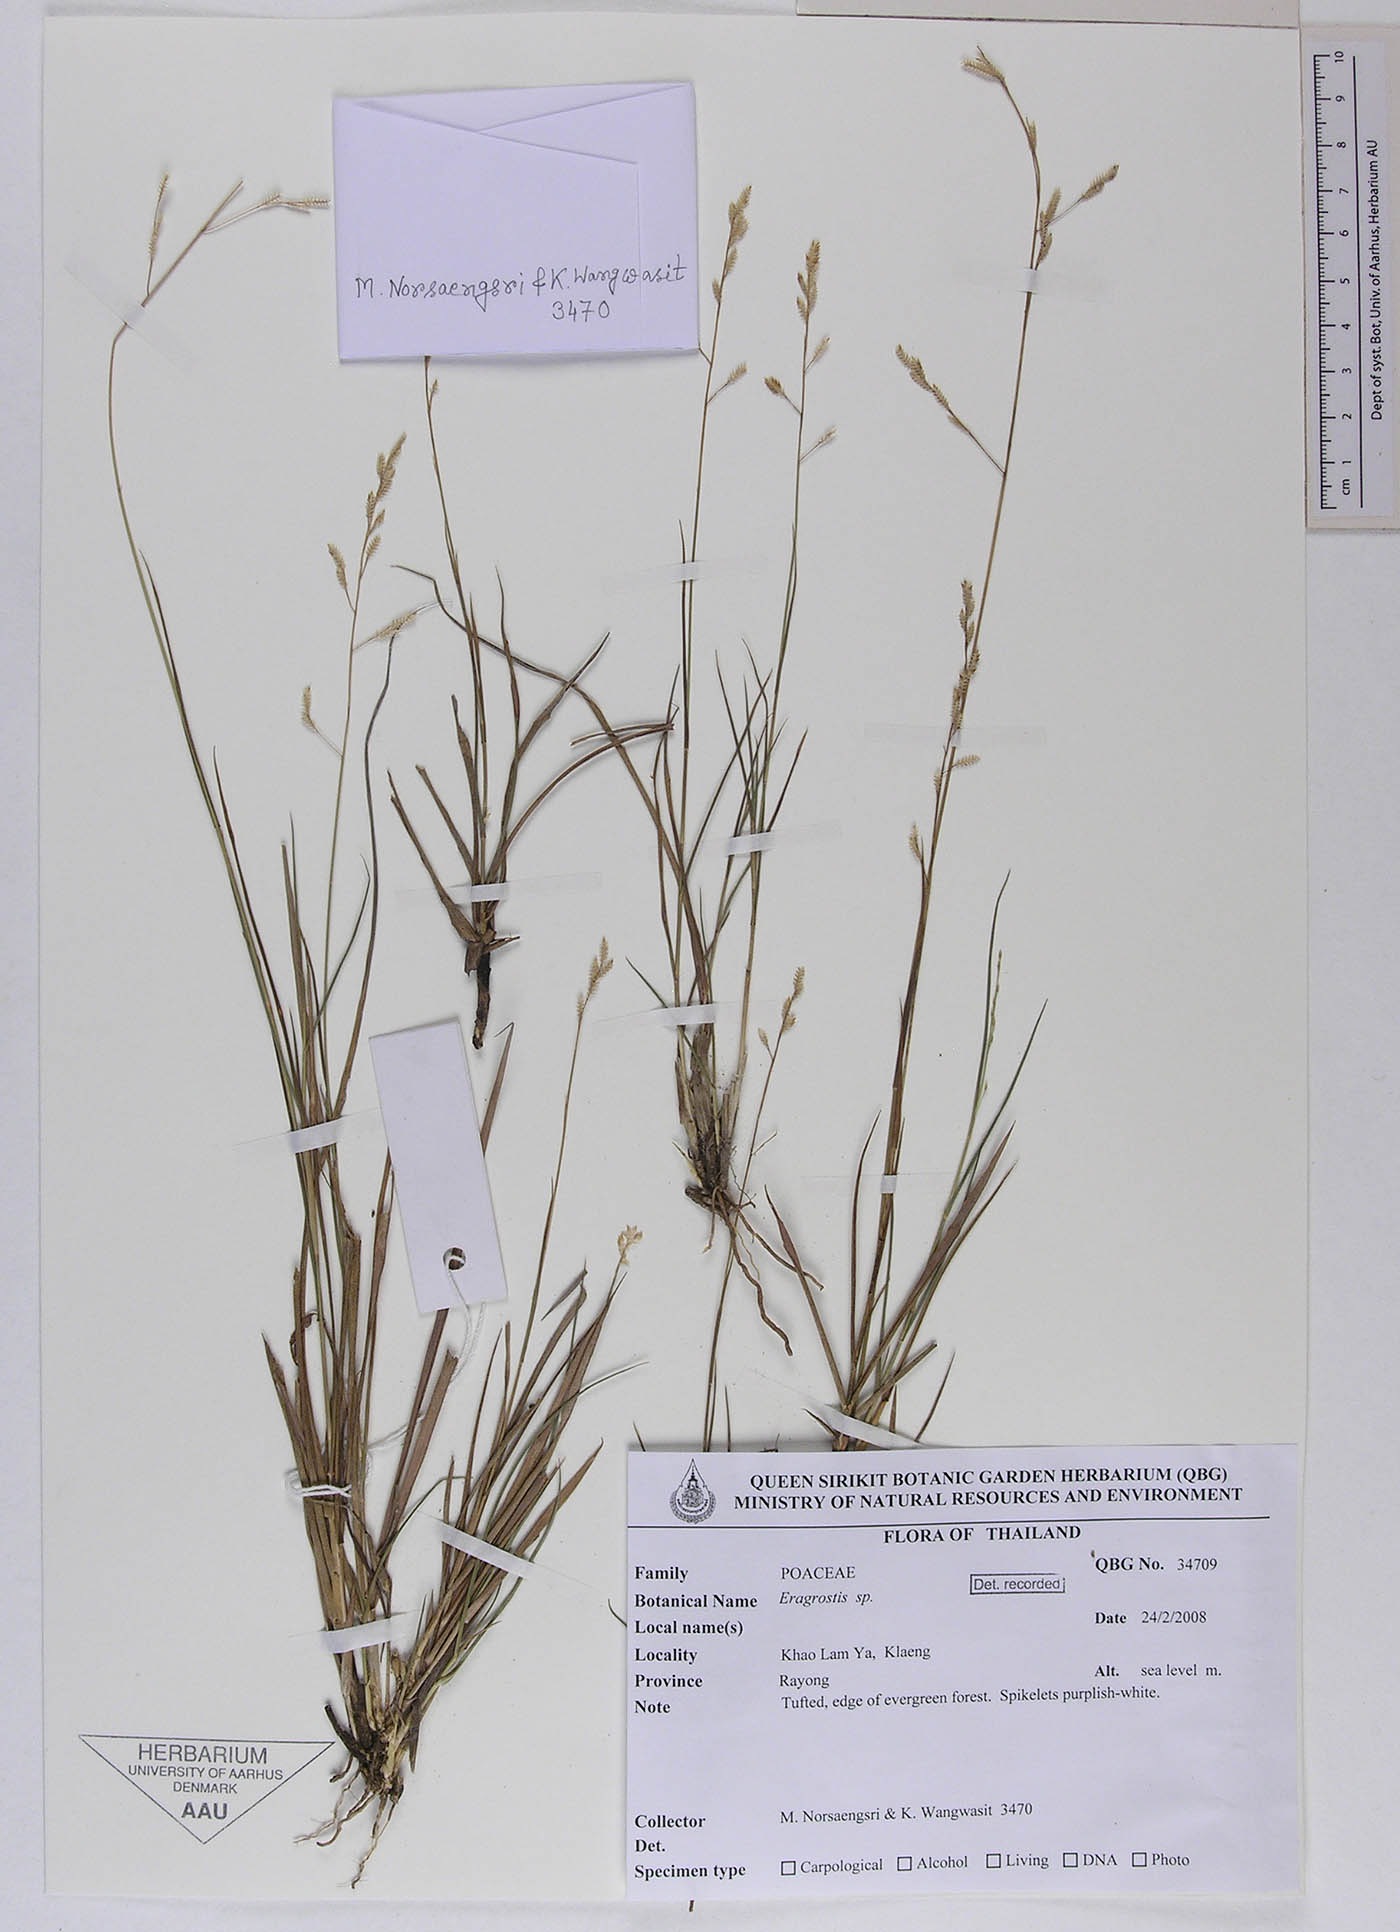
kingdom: Plantae
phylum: Tracheophyta
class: Liliopsida
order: Poales
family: Poaceae
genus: Eragrostis
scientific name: Eragrostis brownii
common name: Lovegrass
